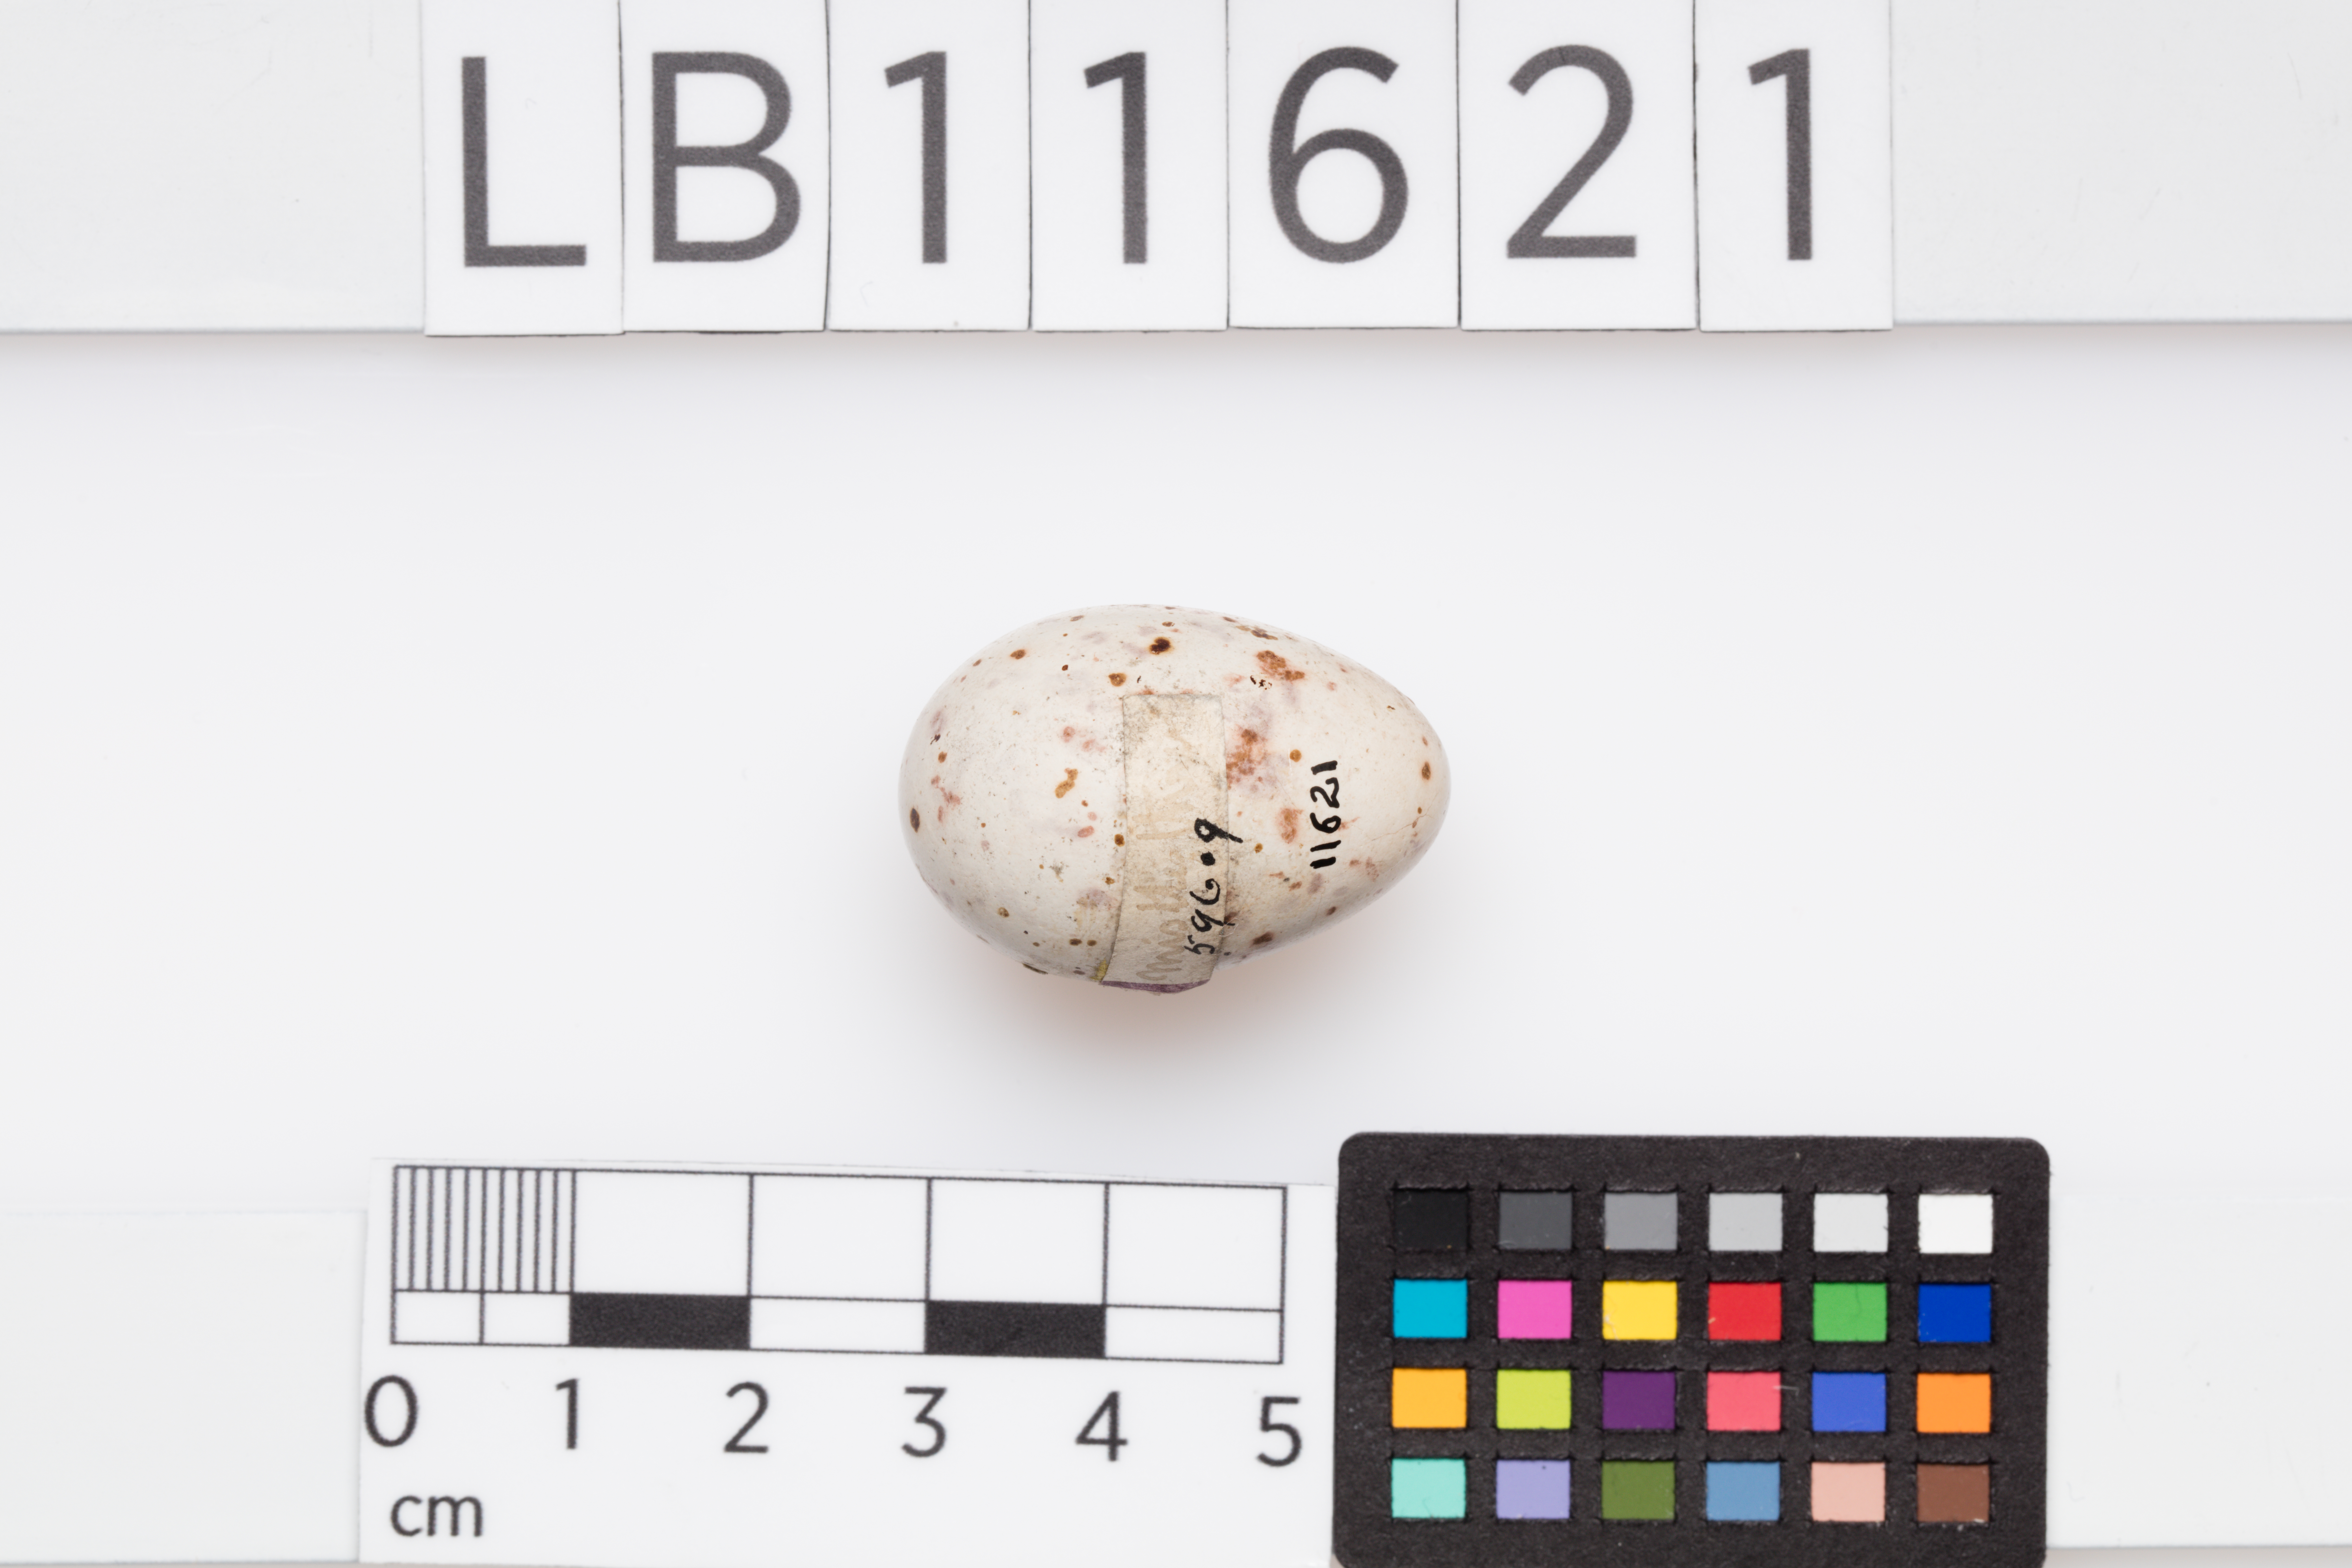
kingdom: Animalia
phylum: Chordata
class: Aves
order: Passeriformes
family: Turdidae
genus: Turdus
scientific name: Turdus viscivorus
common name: Mistle thrush
